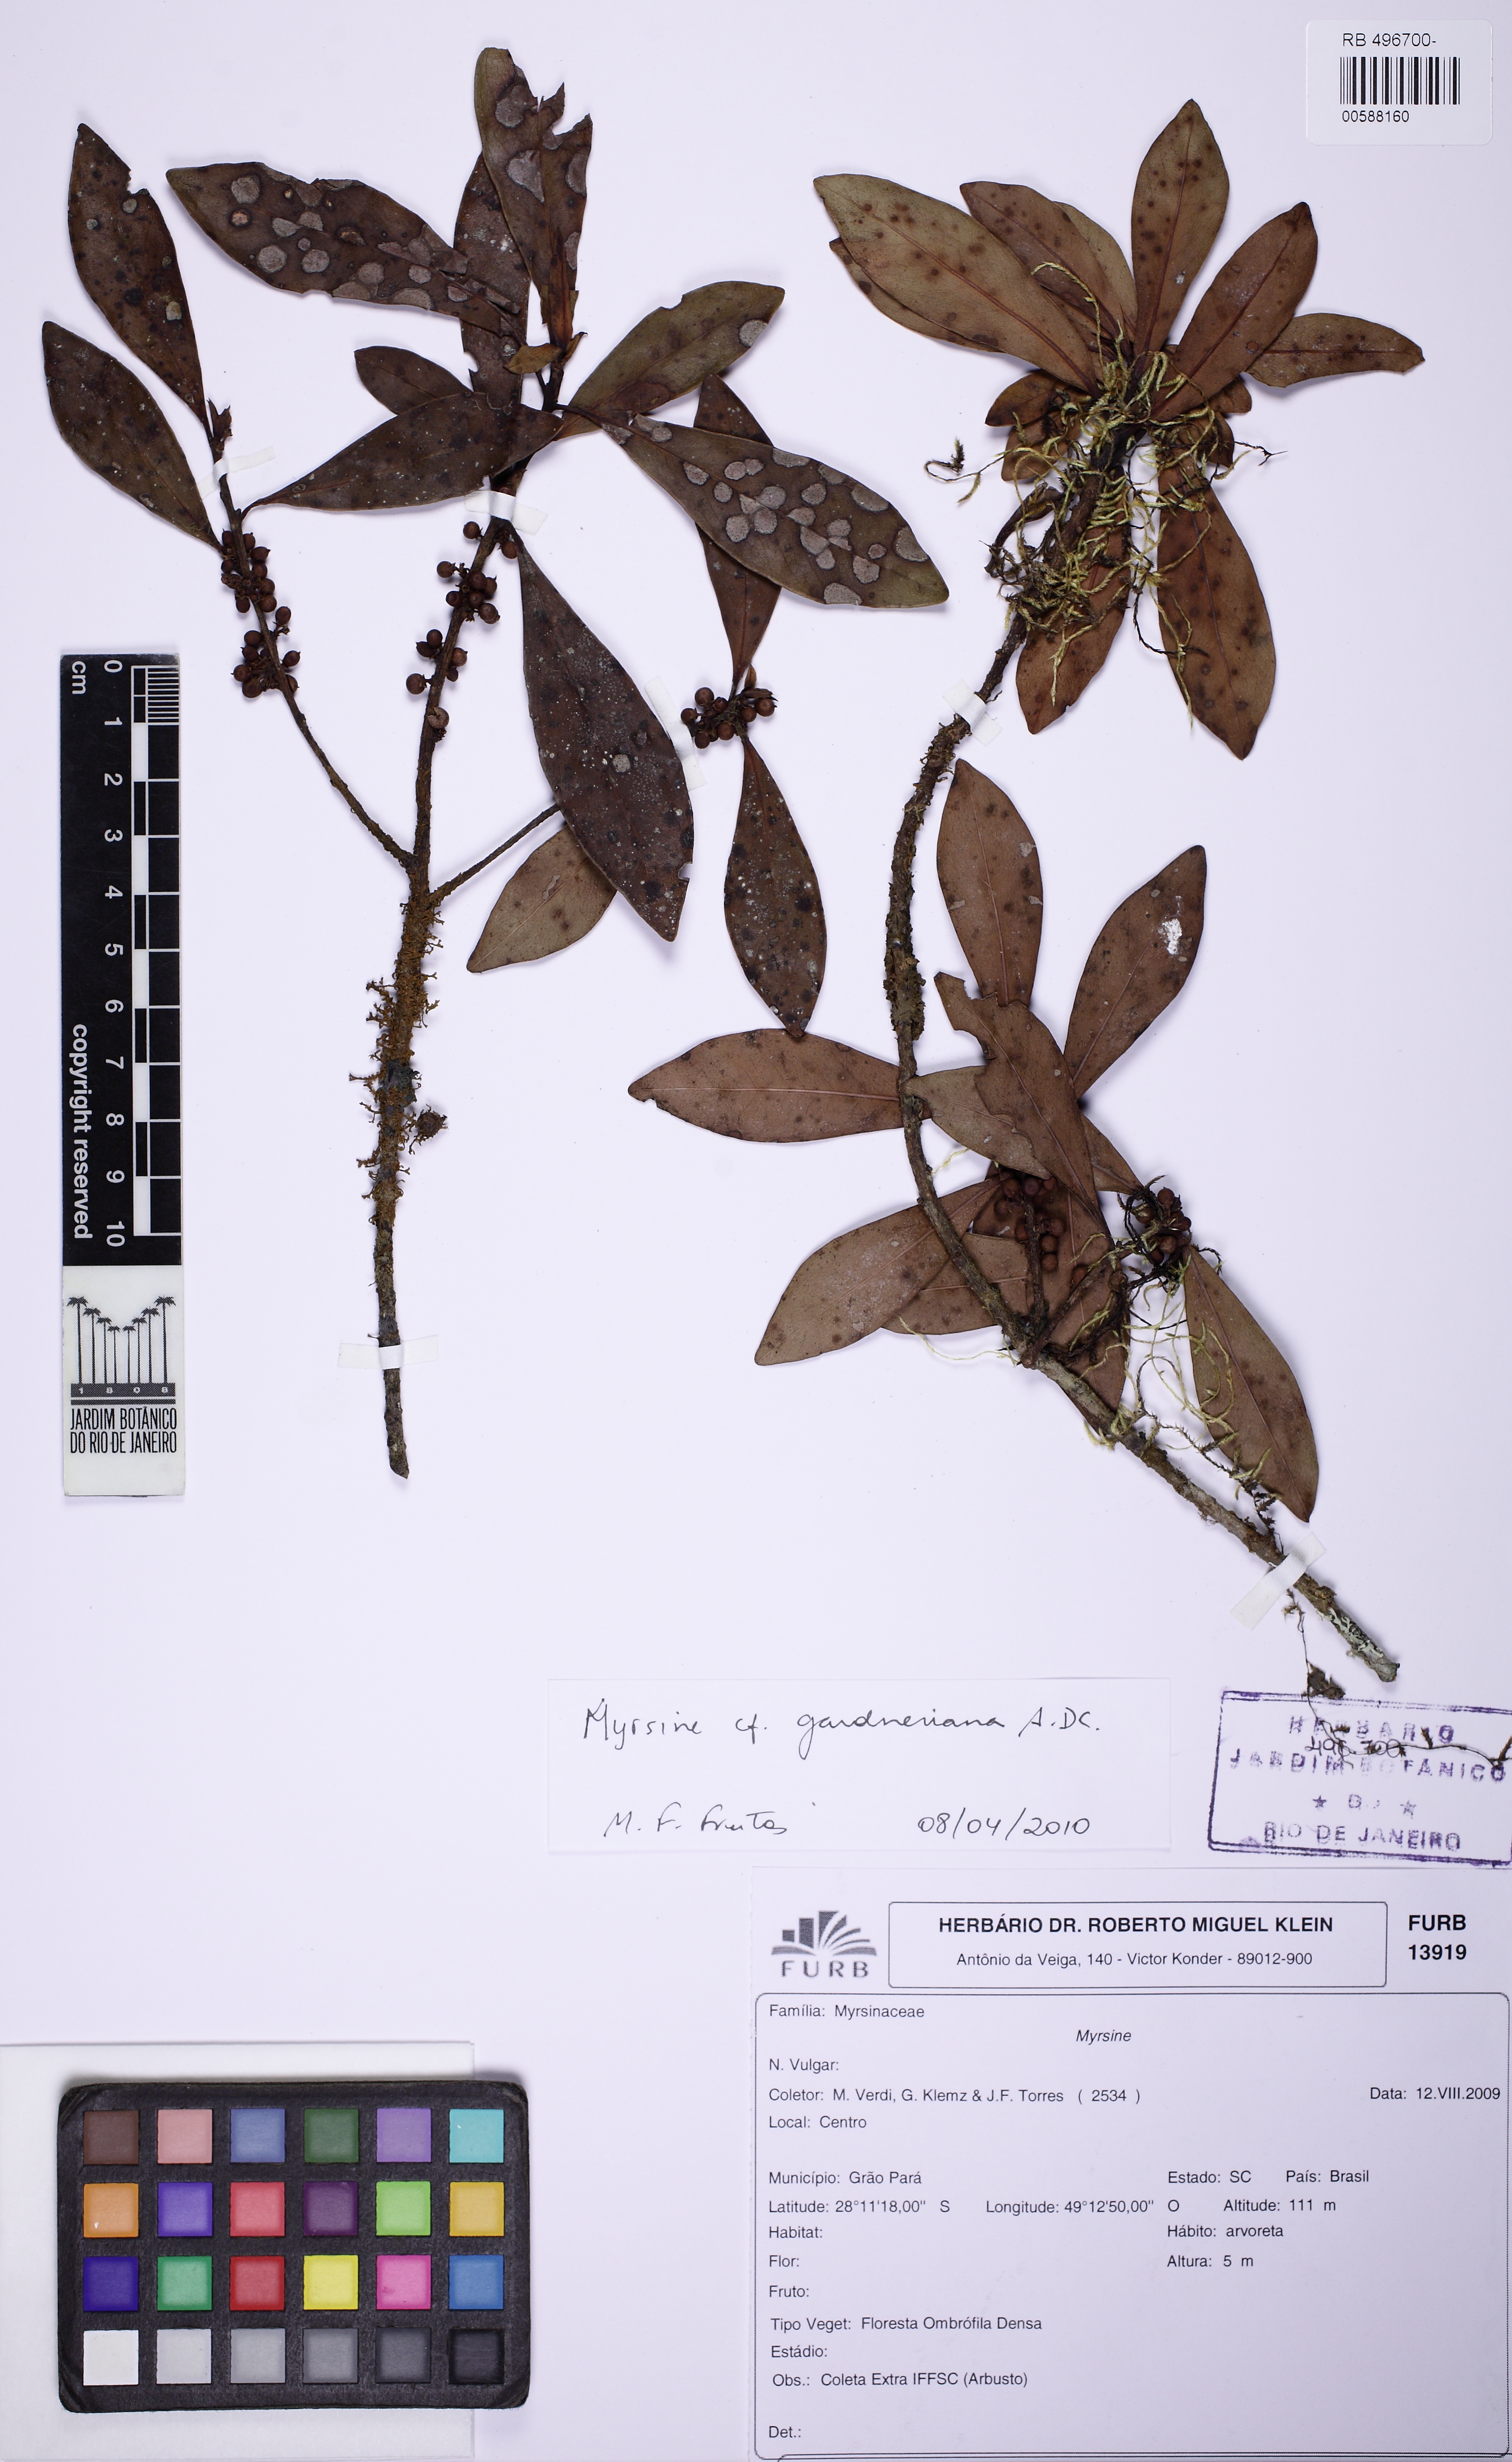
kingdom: Plantae
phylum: Tracheophyta
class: Magnoliopsida
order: Ericales
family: Primulaceae
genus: Myrsine
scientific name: Myrsine gardneriana
